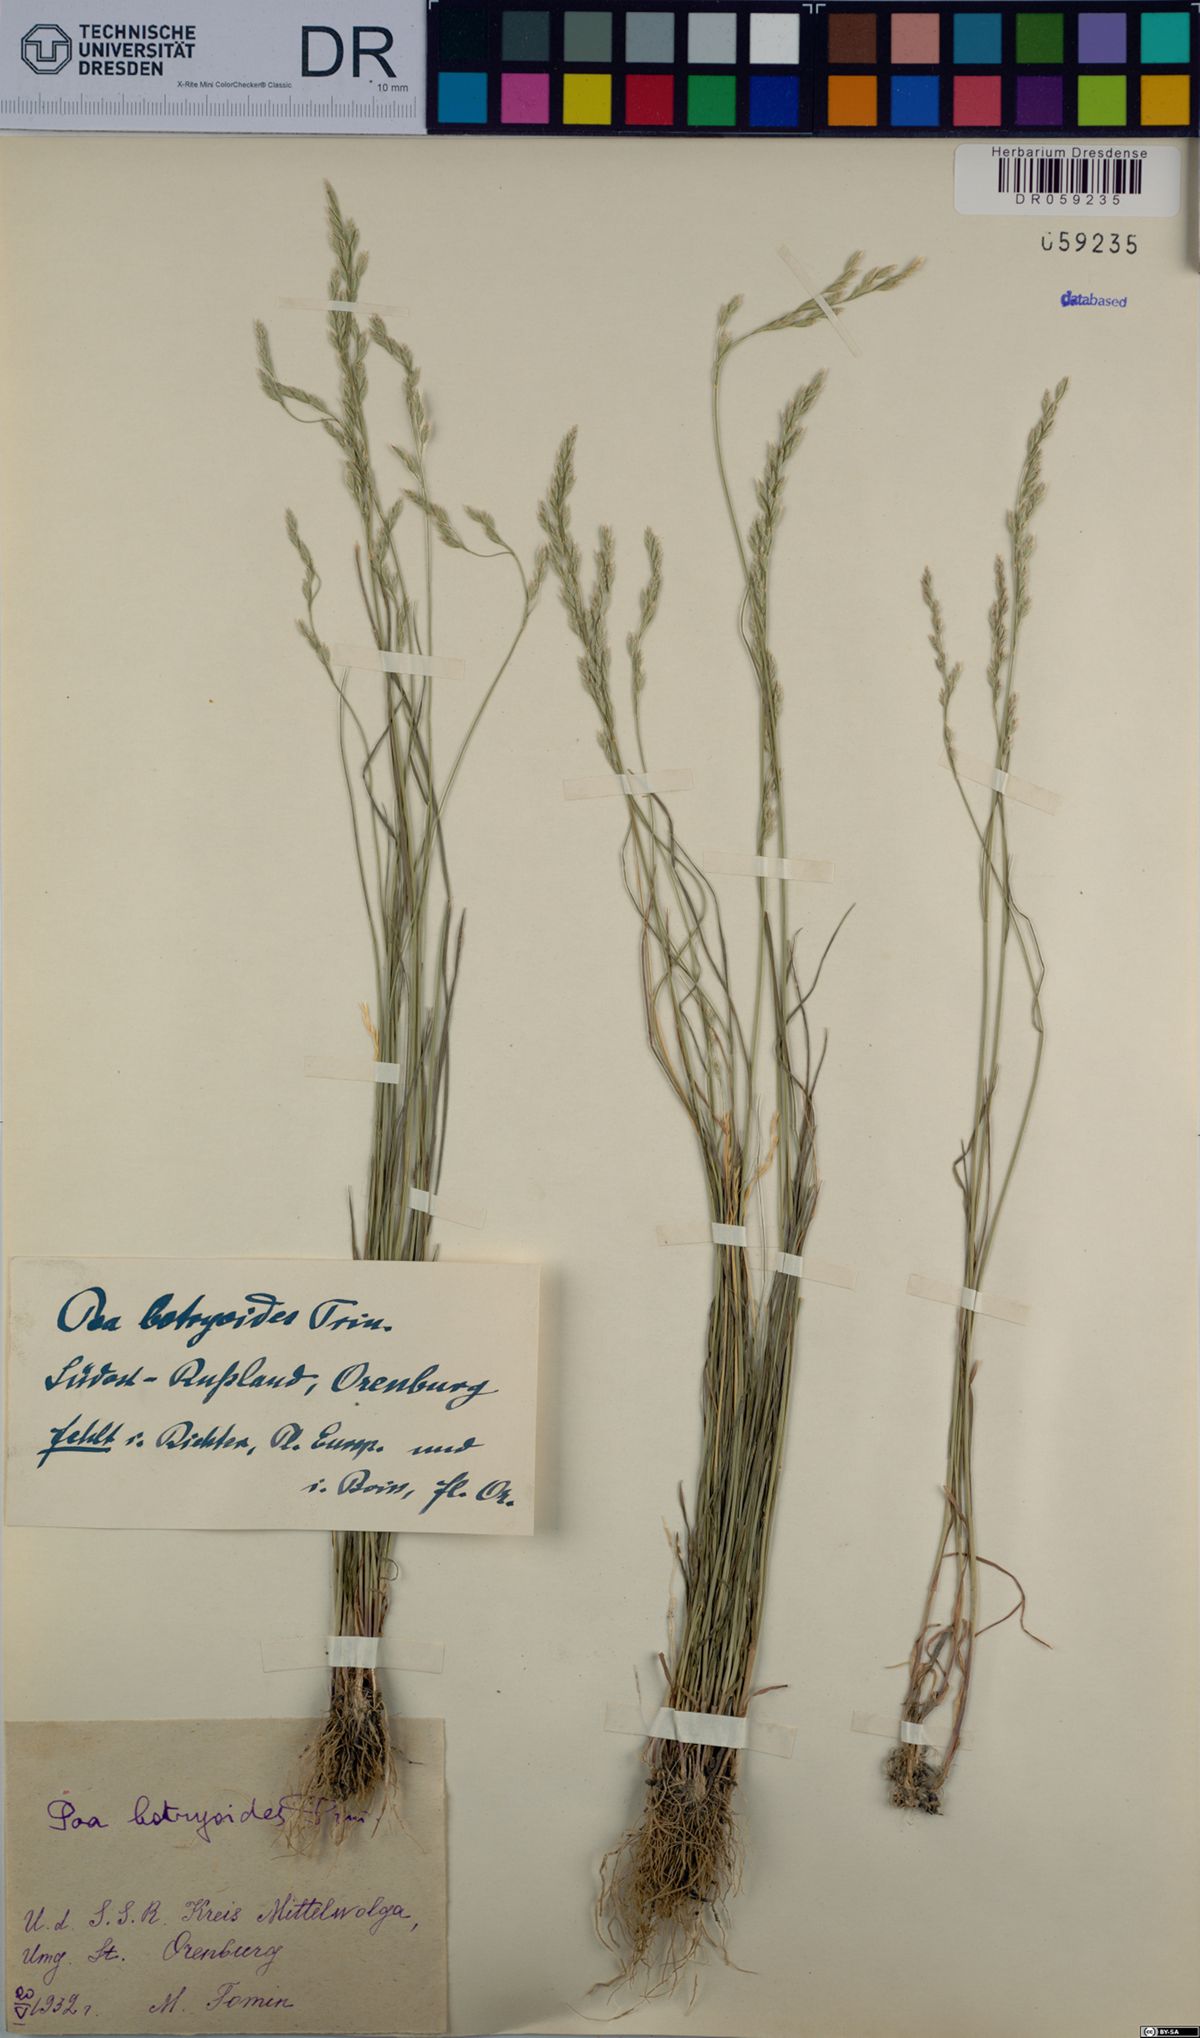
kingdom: Plantae
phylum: Tracheophyta
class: Liliopsida
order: Poales
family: Poaceae
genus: Poa
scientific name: Poa attenuata
